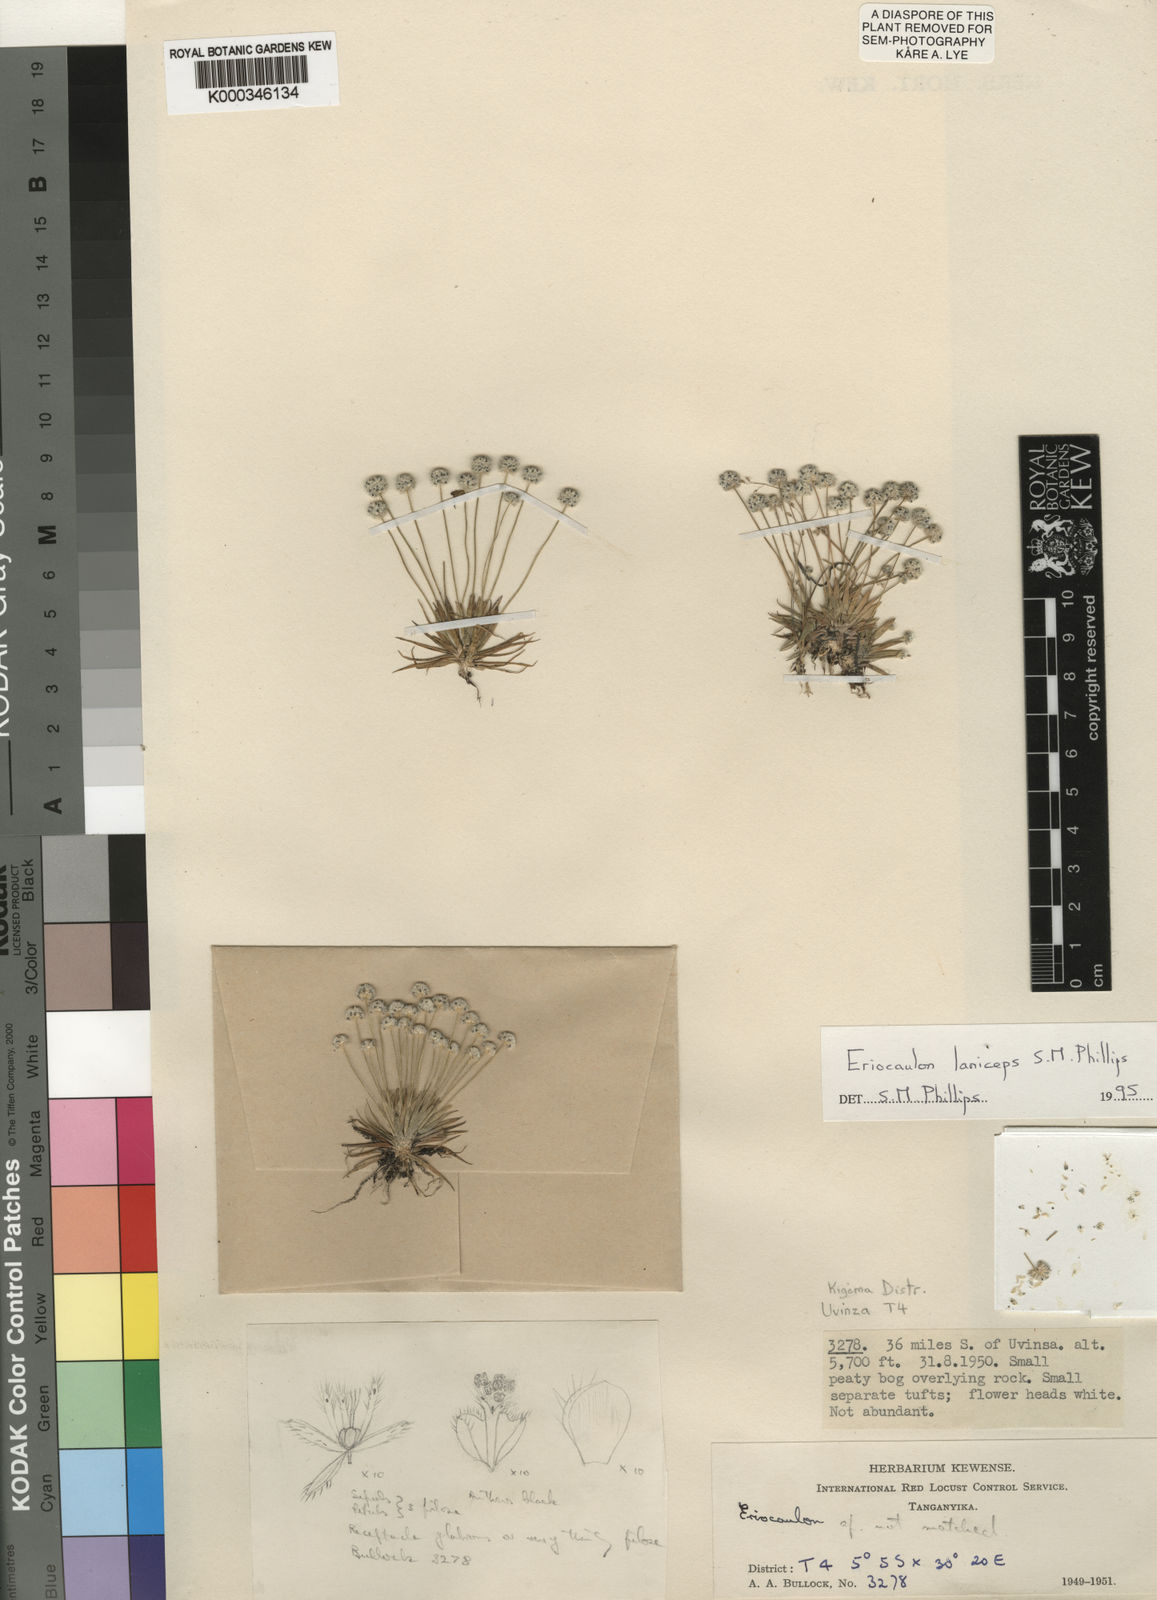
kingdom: Plantae
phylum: Tracheophyta
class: Liliopsida
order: Poales
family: Eriocaulaceae
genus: Eriocaulon
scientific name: Eriocaulon laniceps
